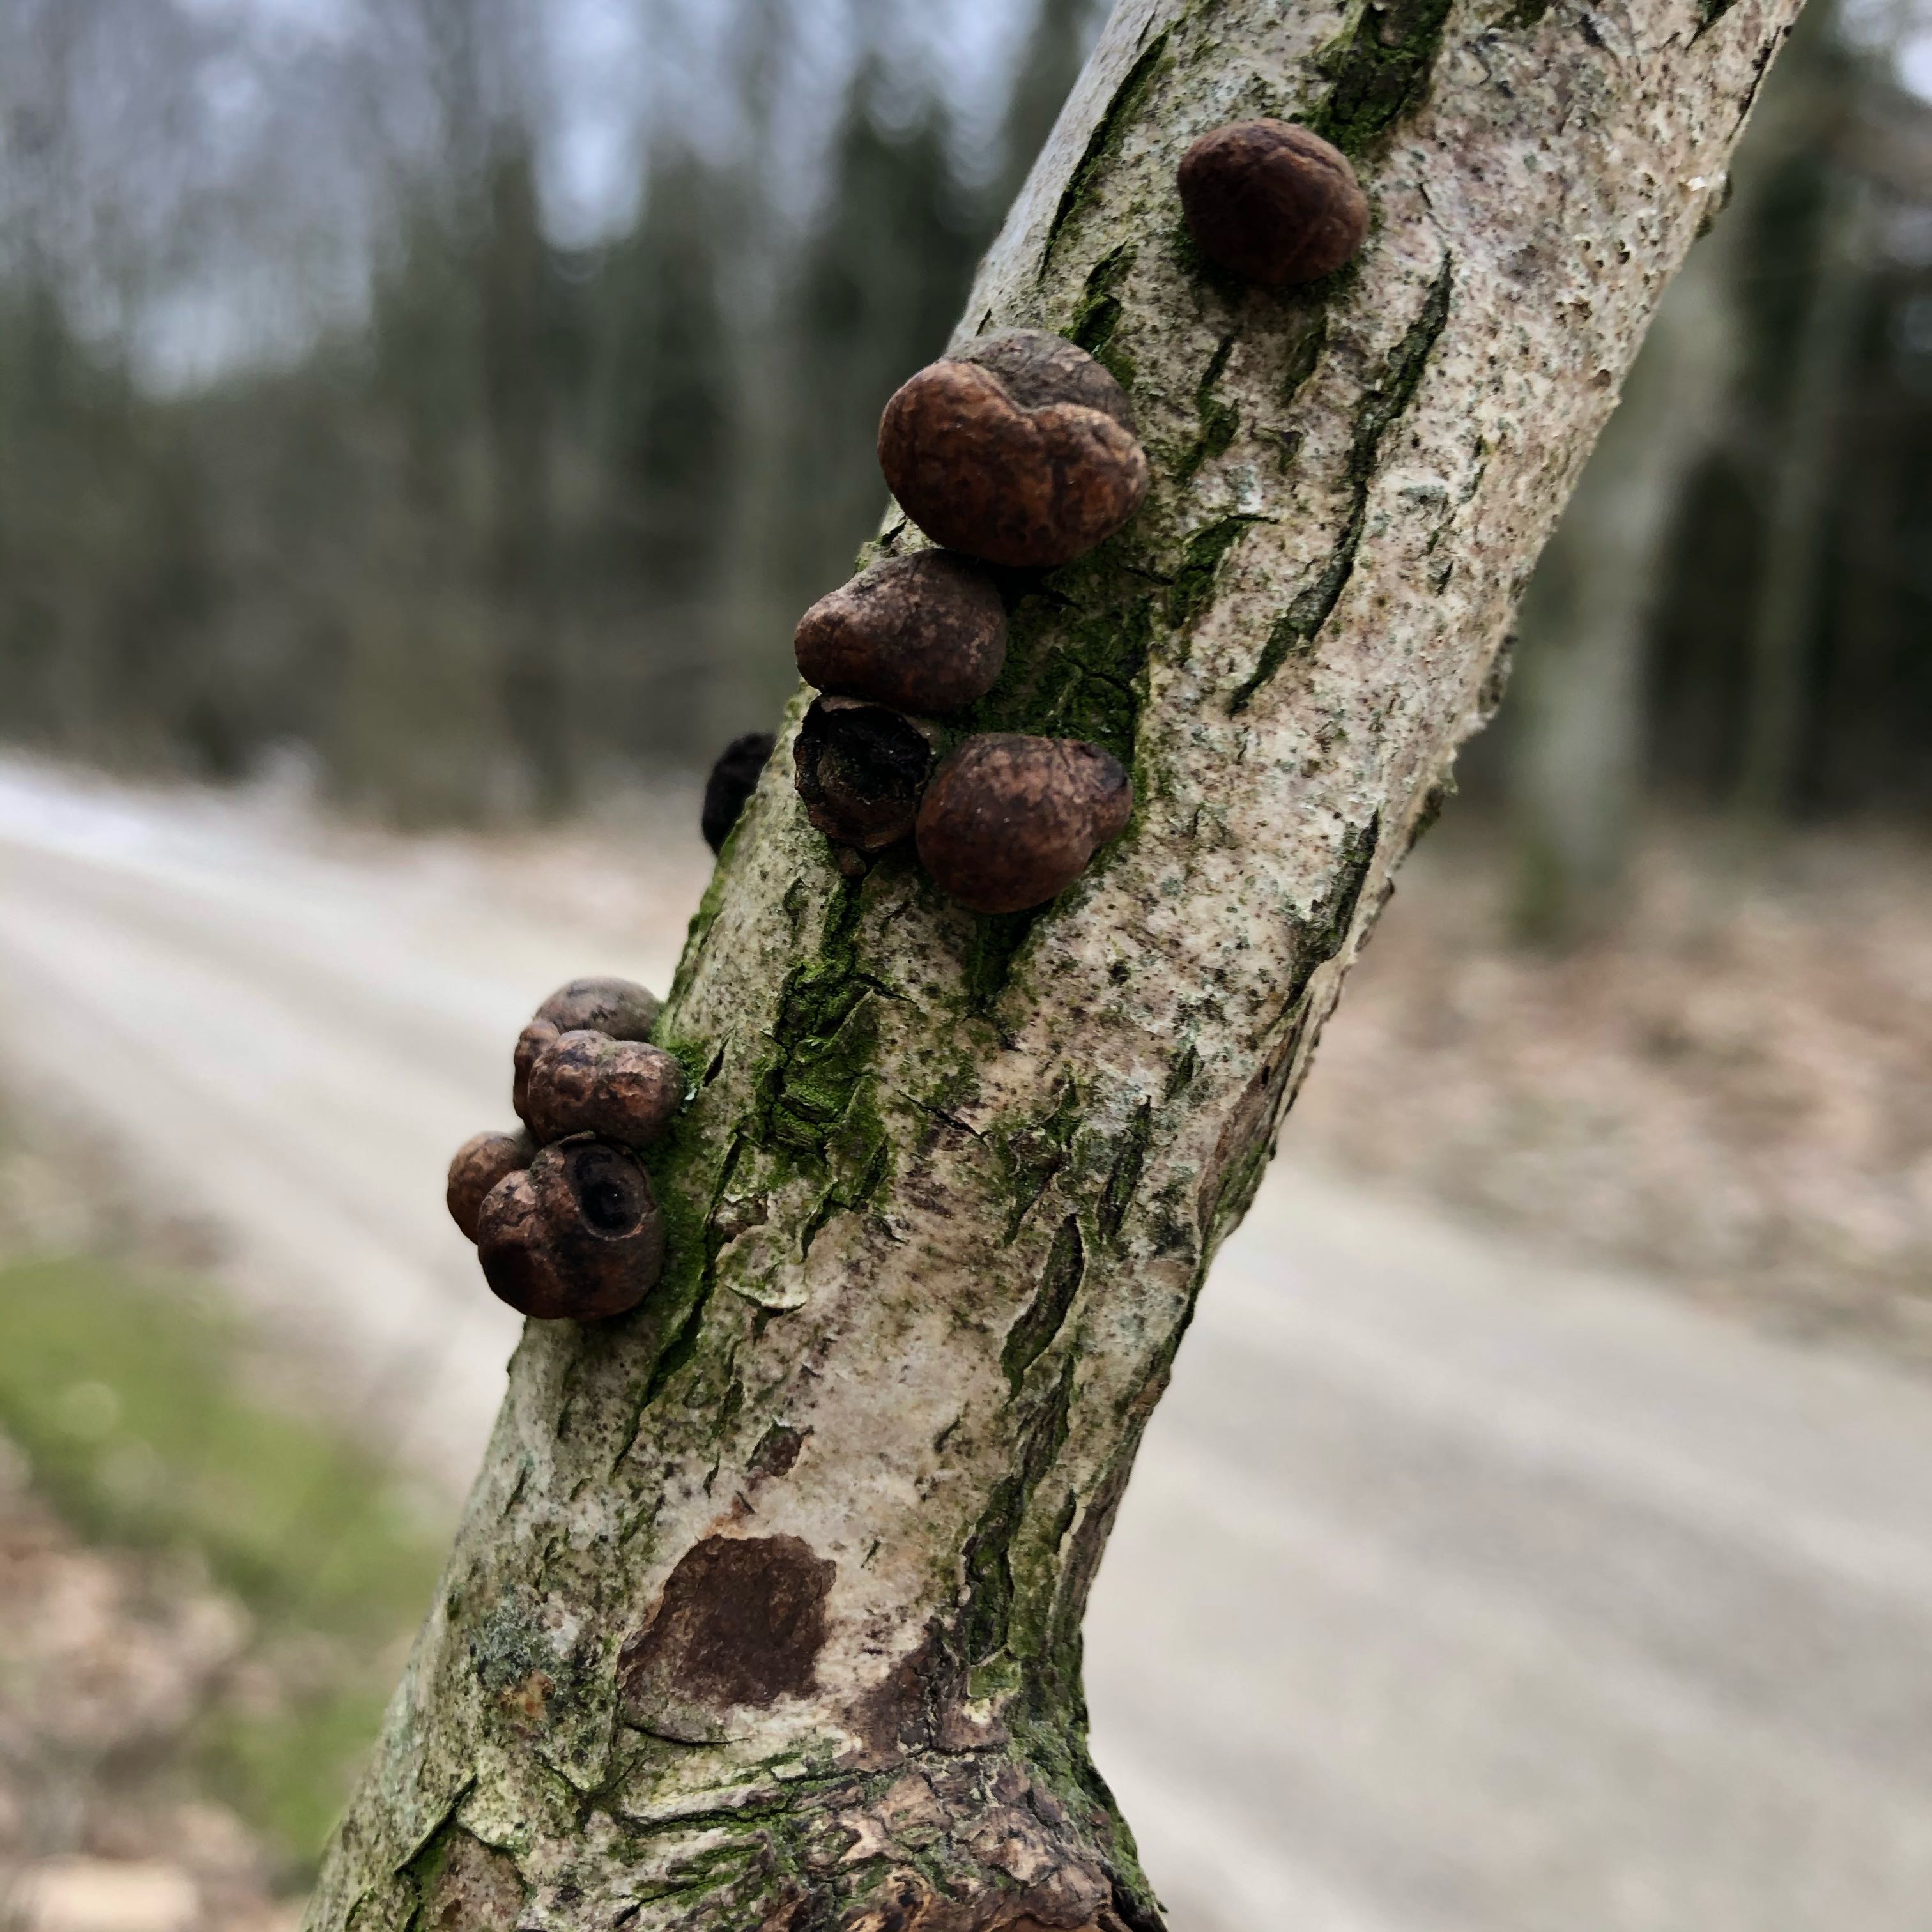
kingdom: Fungi
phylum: Ascomycota
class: Sordariomycetes
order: Xylariales
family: Hypoxylaceae
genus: Hypoxylon
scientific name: Hypoxylon
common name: kulbær
